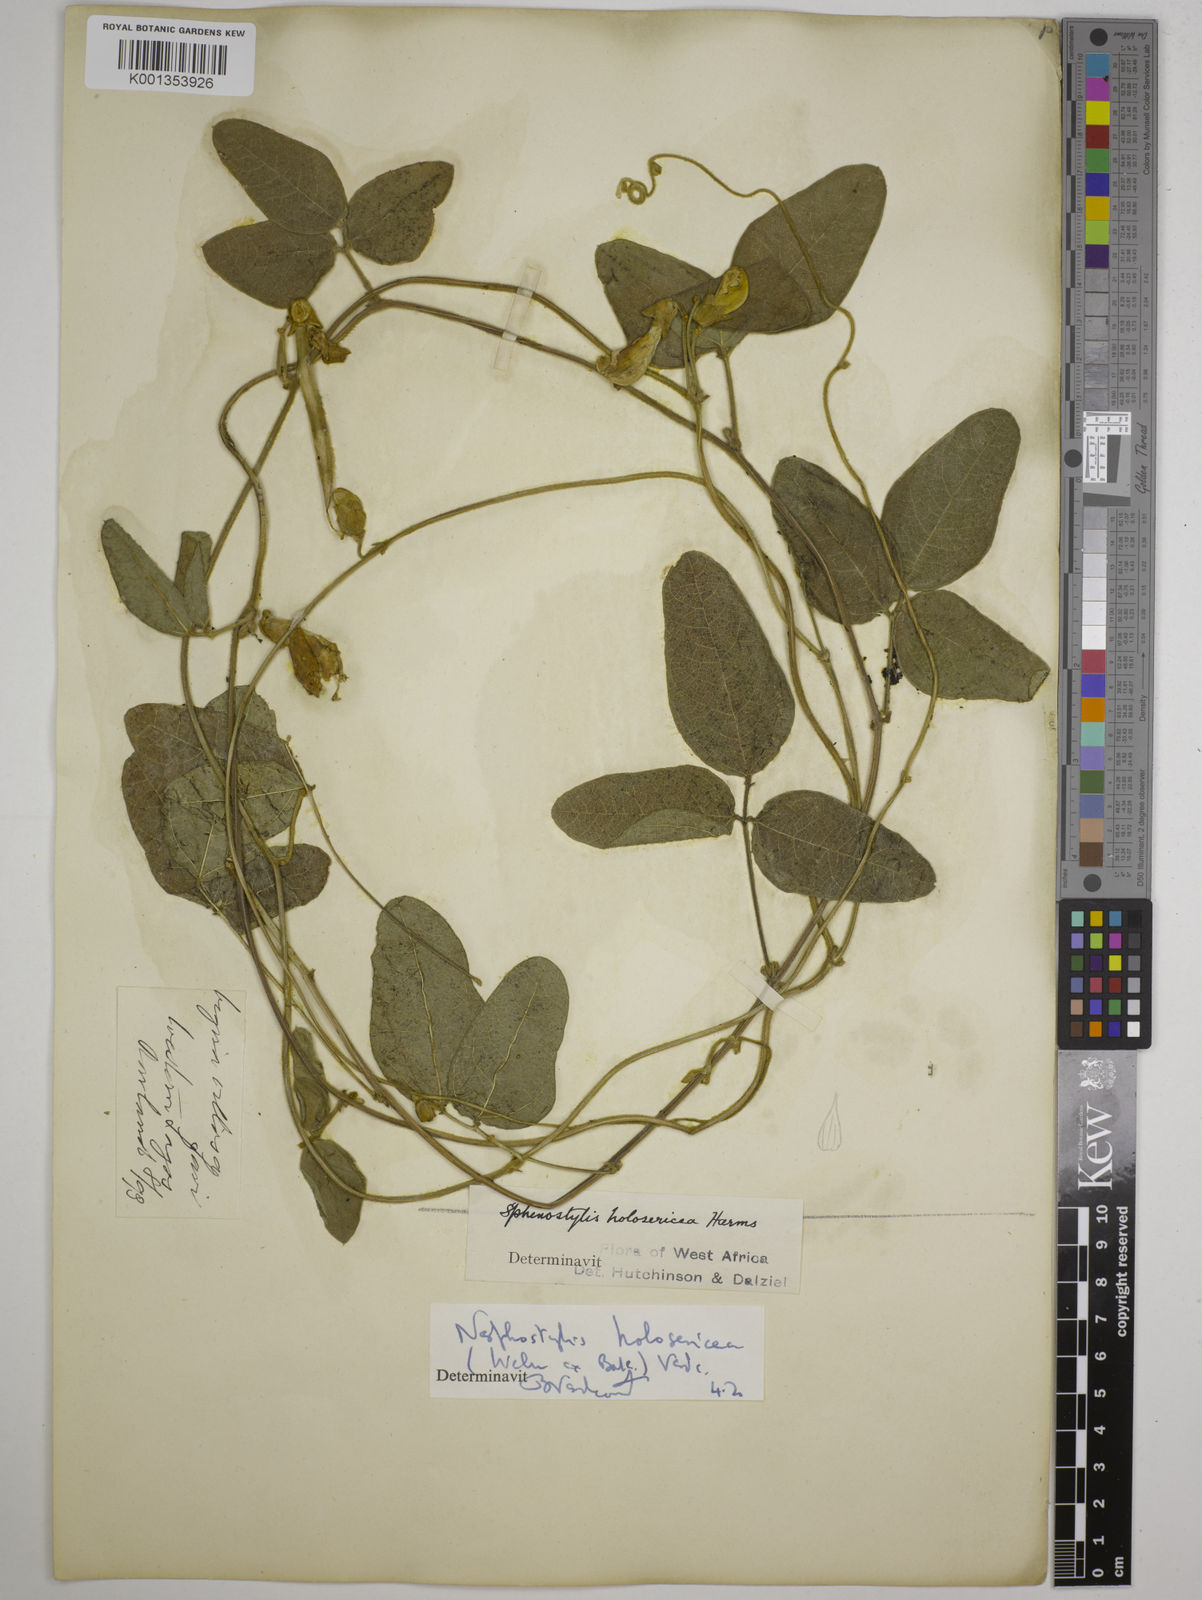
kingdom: Plantae
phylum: Tracheophyta
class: Magnoliopsida
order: Fabales
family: Fabaceae
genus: Nesphostylis
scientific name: Nesphostylis holosericea
